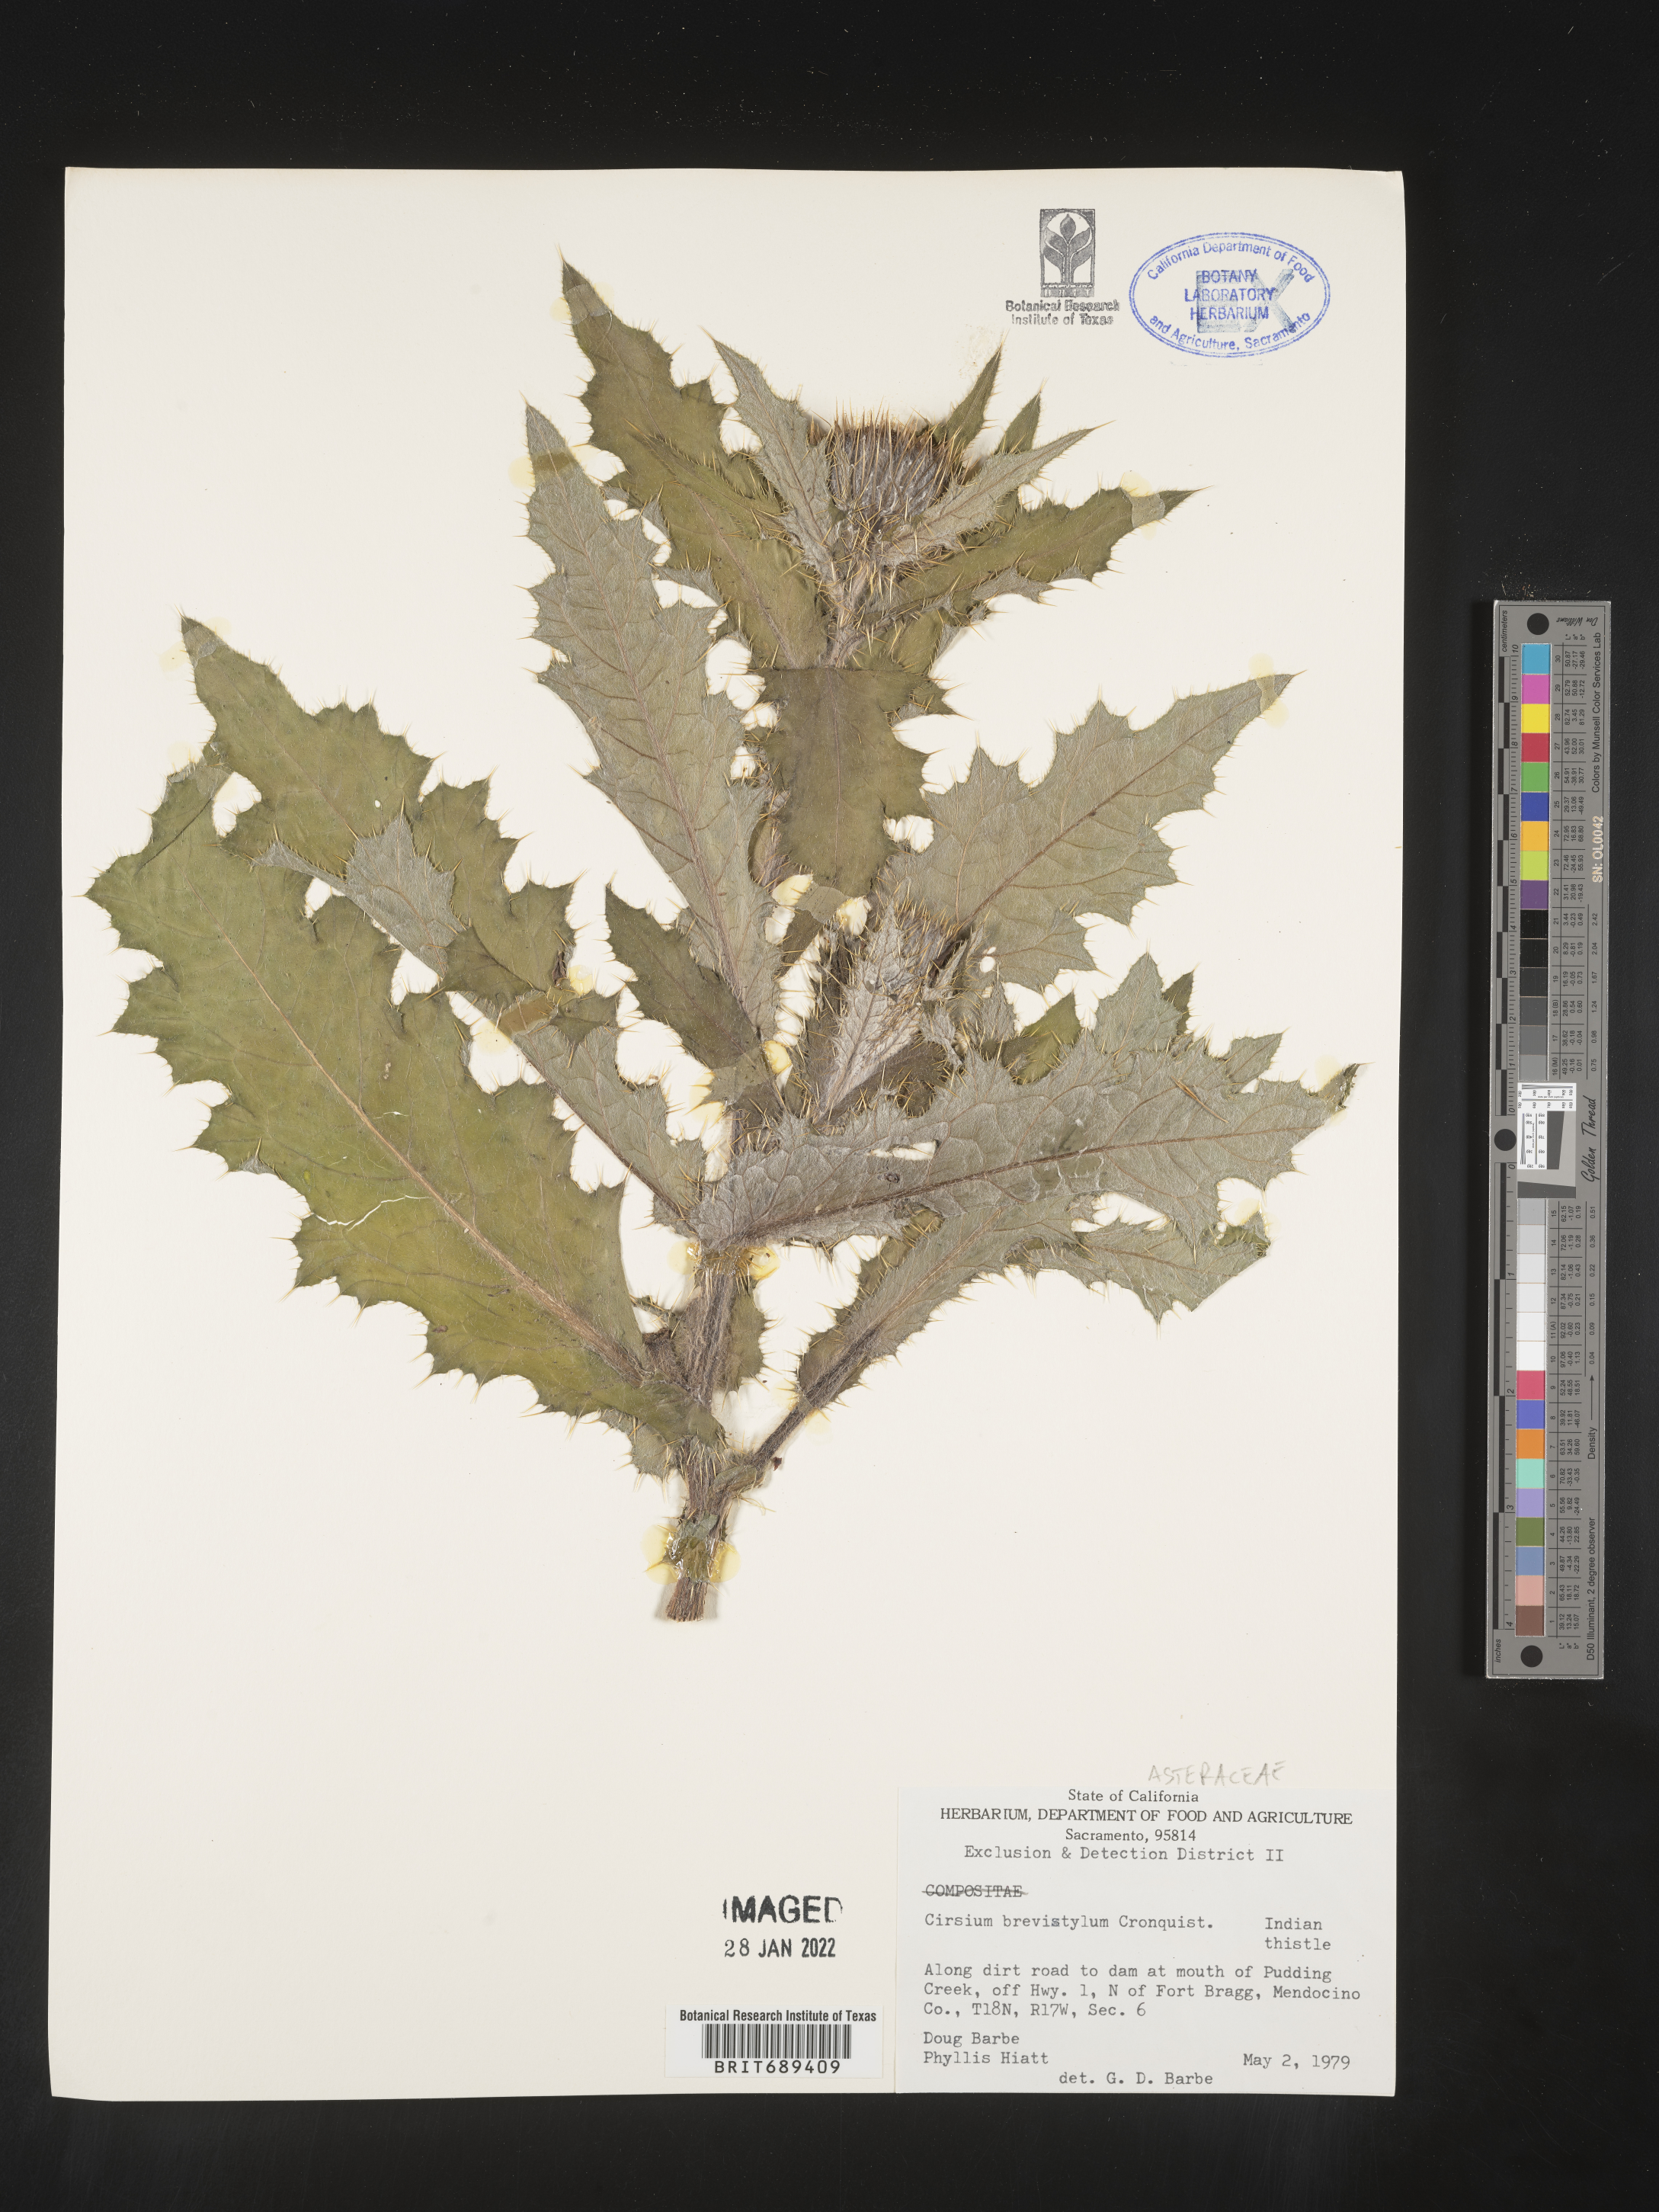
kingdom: Plantae
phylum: Tracheophyta
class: Magnoliopsida
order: Asterales
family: Asteraceae
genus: Cirsium
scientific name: Cirsium
